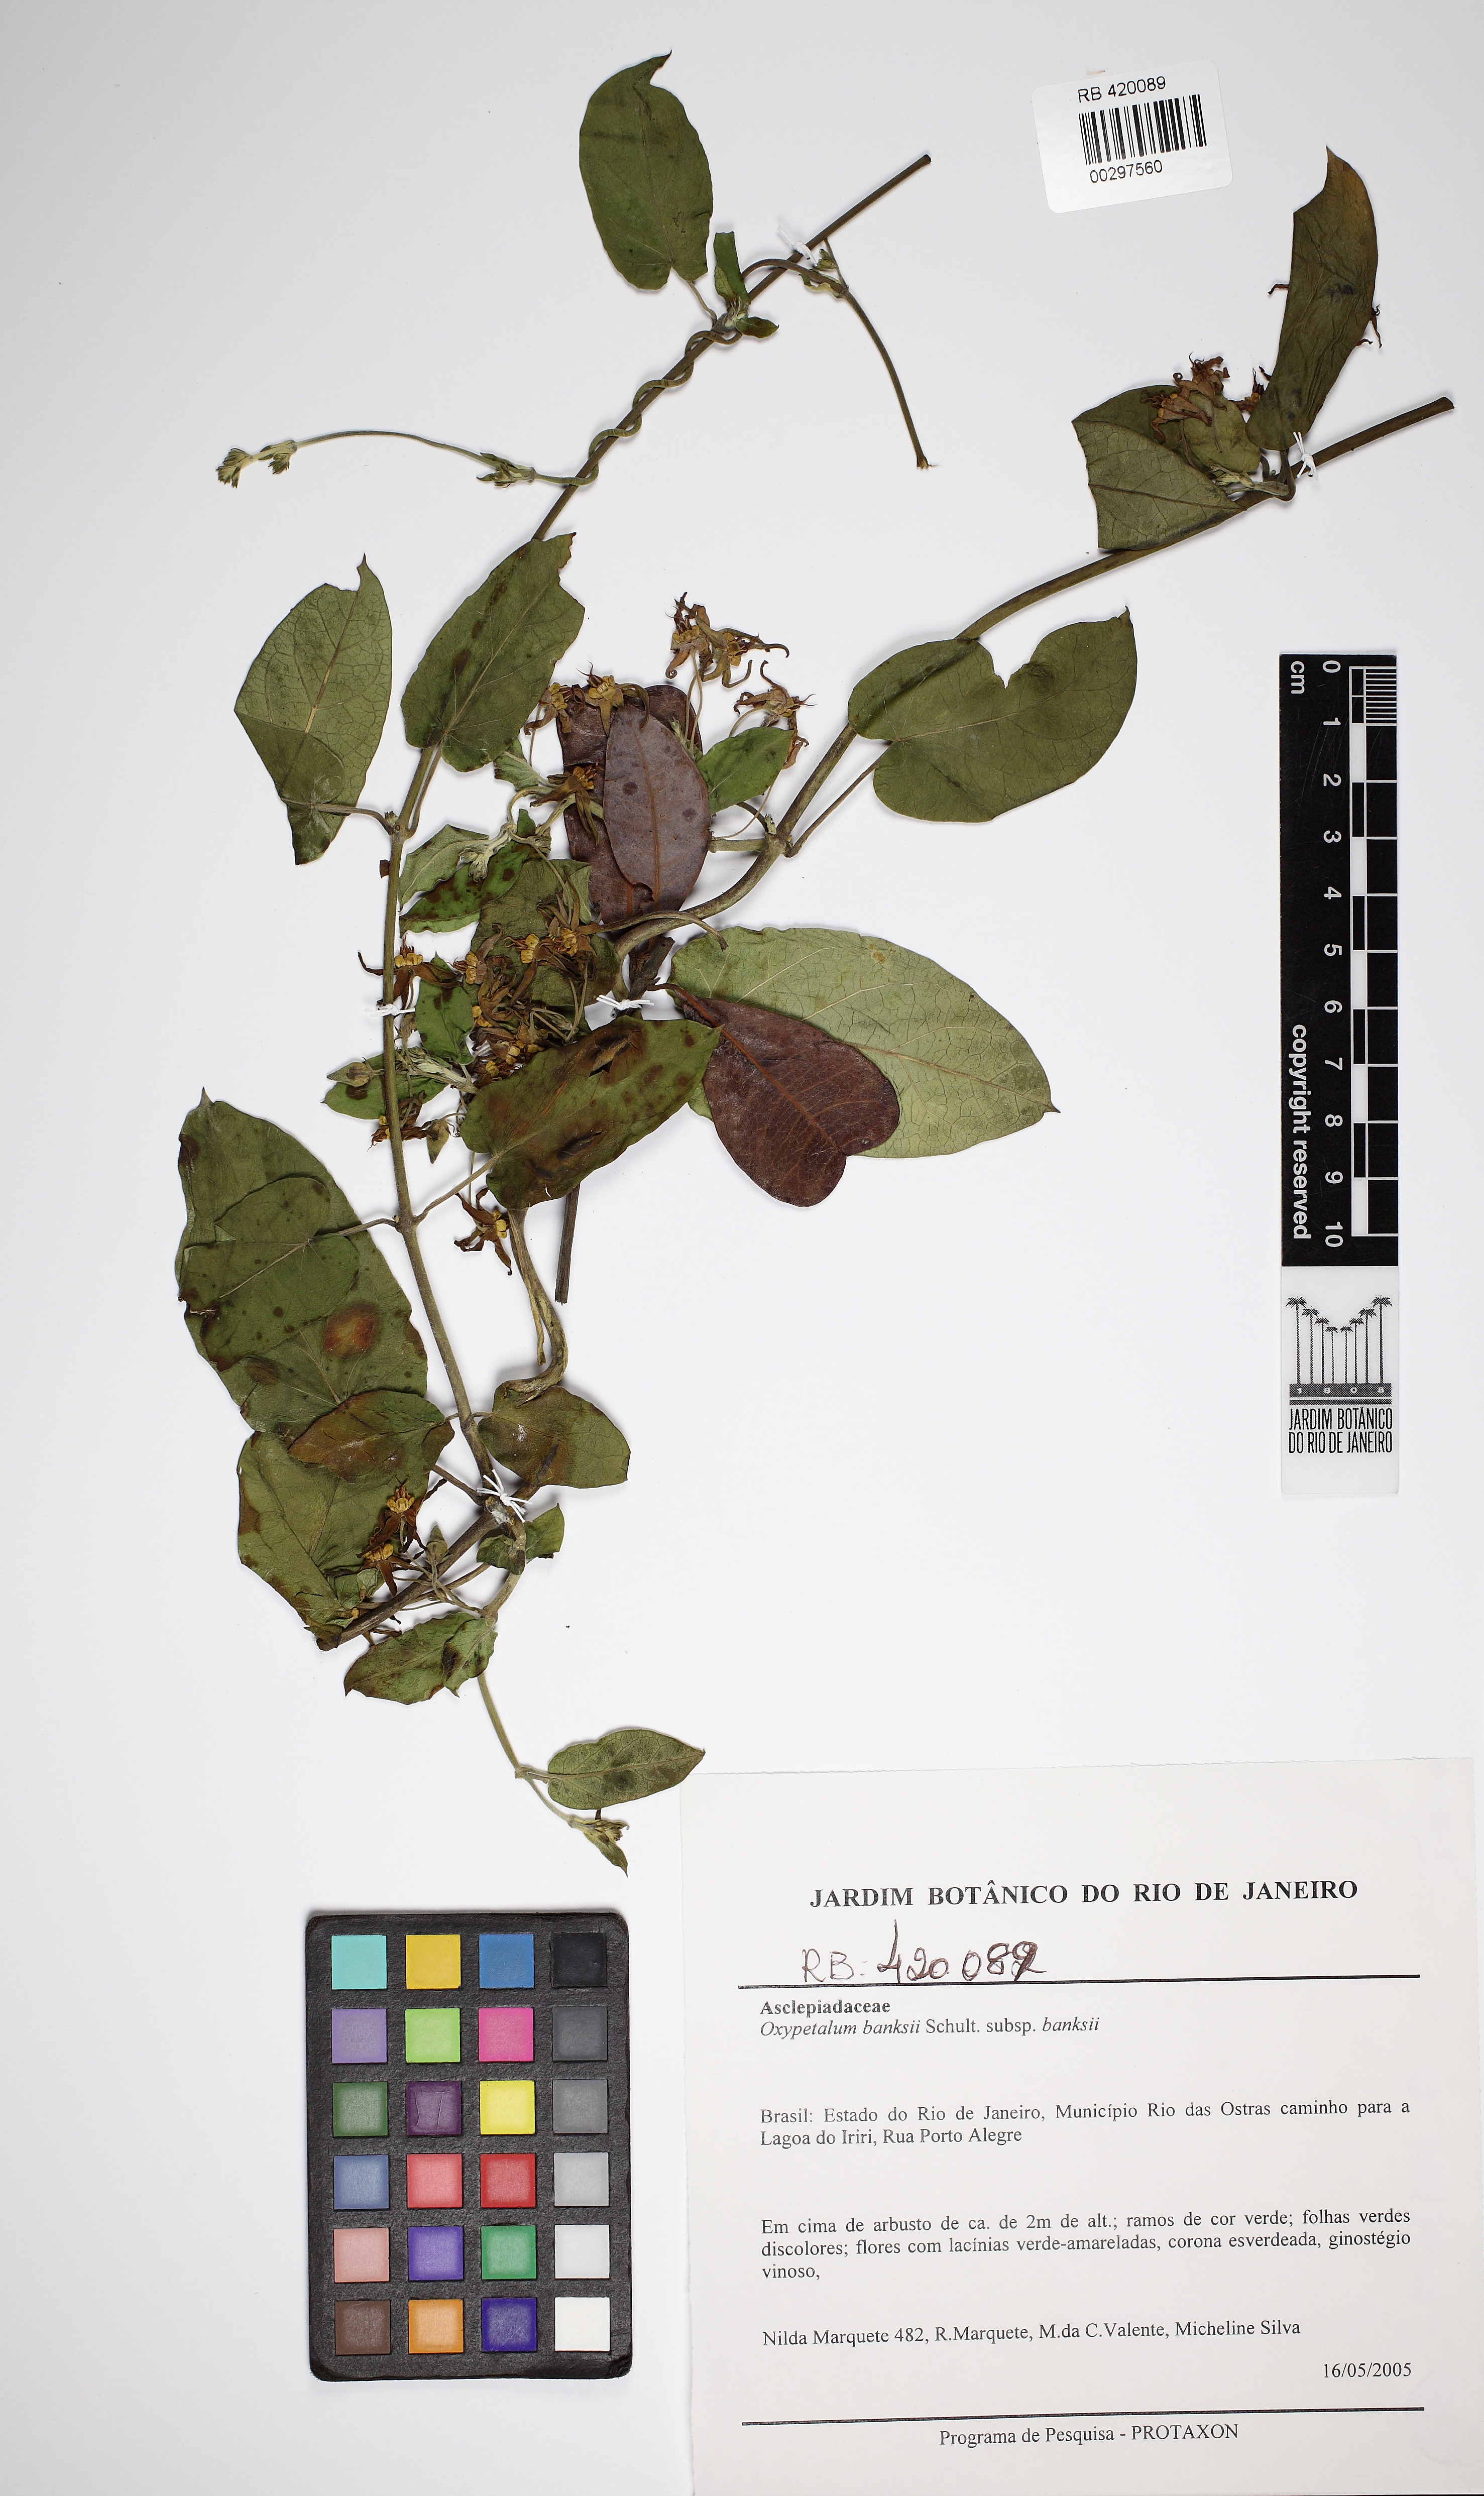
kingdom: Plantae
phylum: Tracheophyta
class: Magnoliopsida
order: Gentianales
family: Apocynaceae
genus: Oxypetalum
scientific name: Oxypetalum banksii
